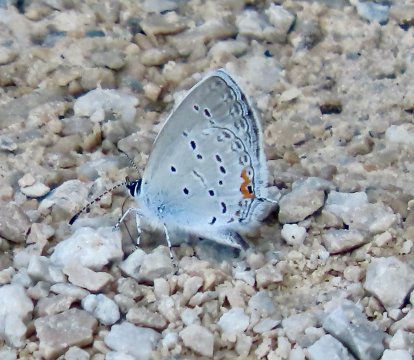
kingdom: Animalia
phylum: Arthropoda
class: Insecta
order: Lepidoptera
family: Lycaenidae
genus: Elkalyce
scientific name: Elkalyce comyntas
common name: Eastern Tailed-Blue
